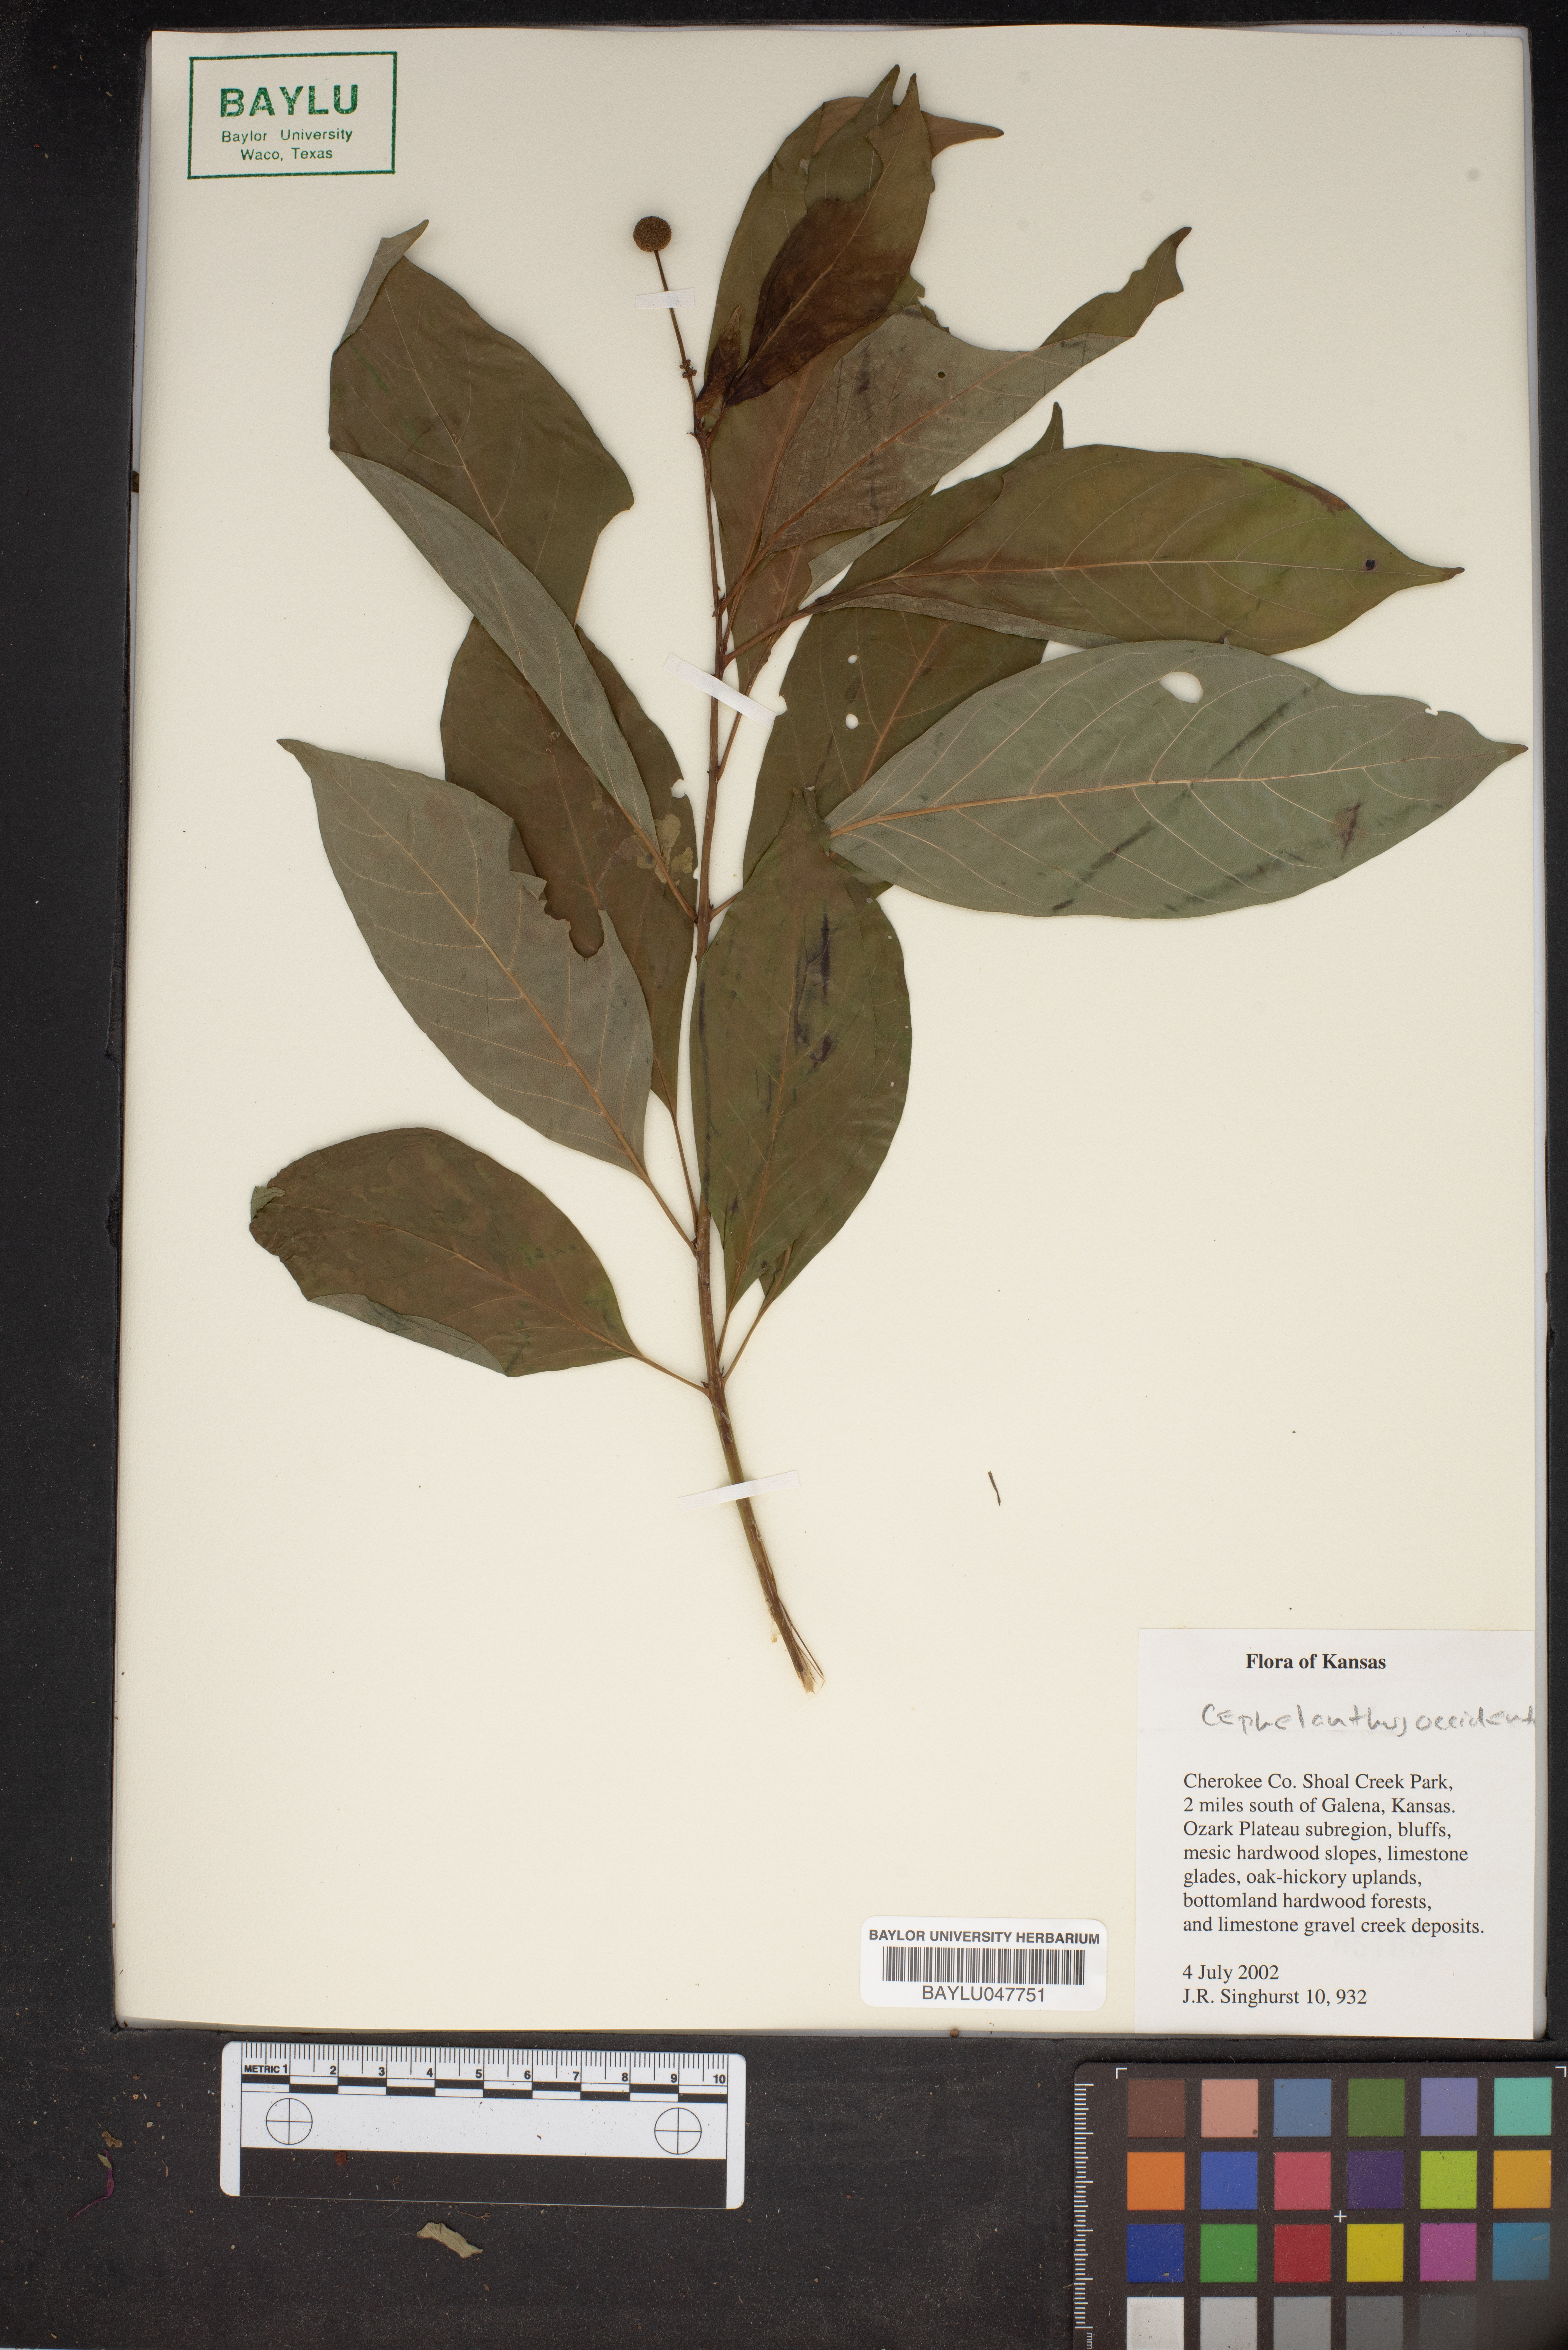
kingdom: Plantae
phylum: Tracheophyta
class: Magnoliopsida
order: Gentianales
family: Rubiaceae
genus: Cephalanthus
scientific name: Cephalanthus occidentalis
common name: Button-willow
